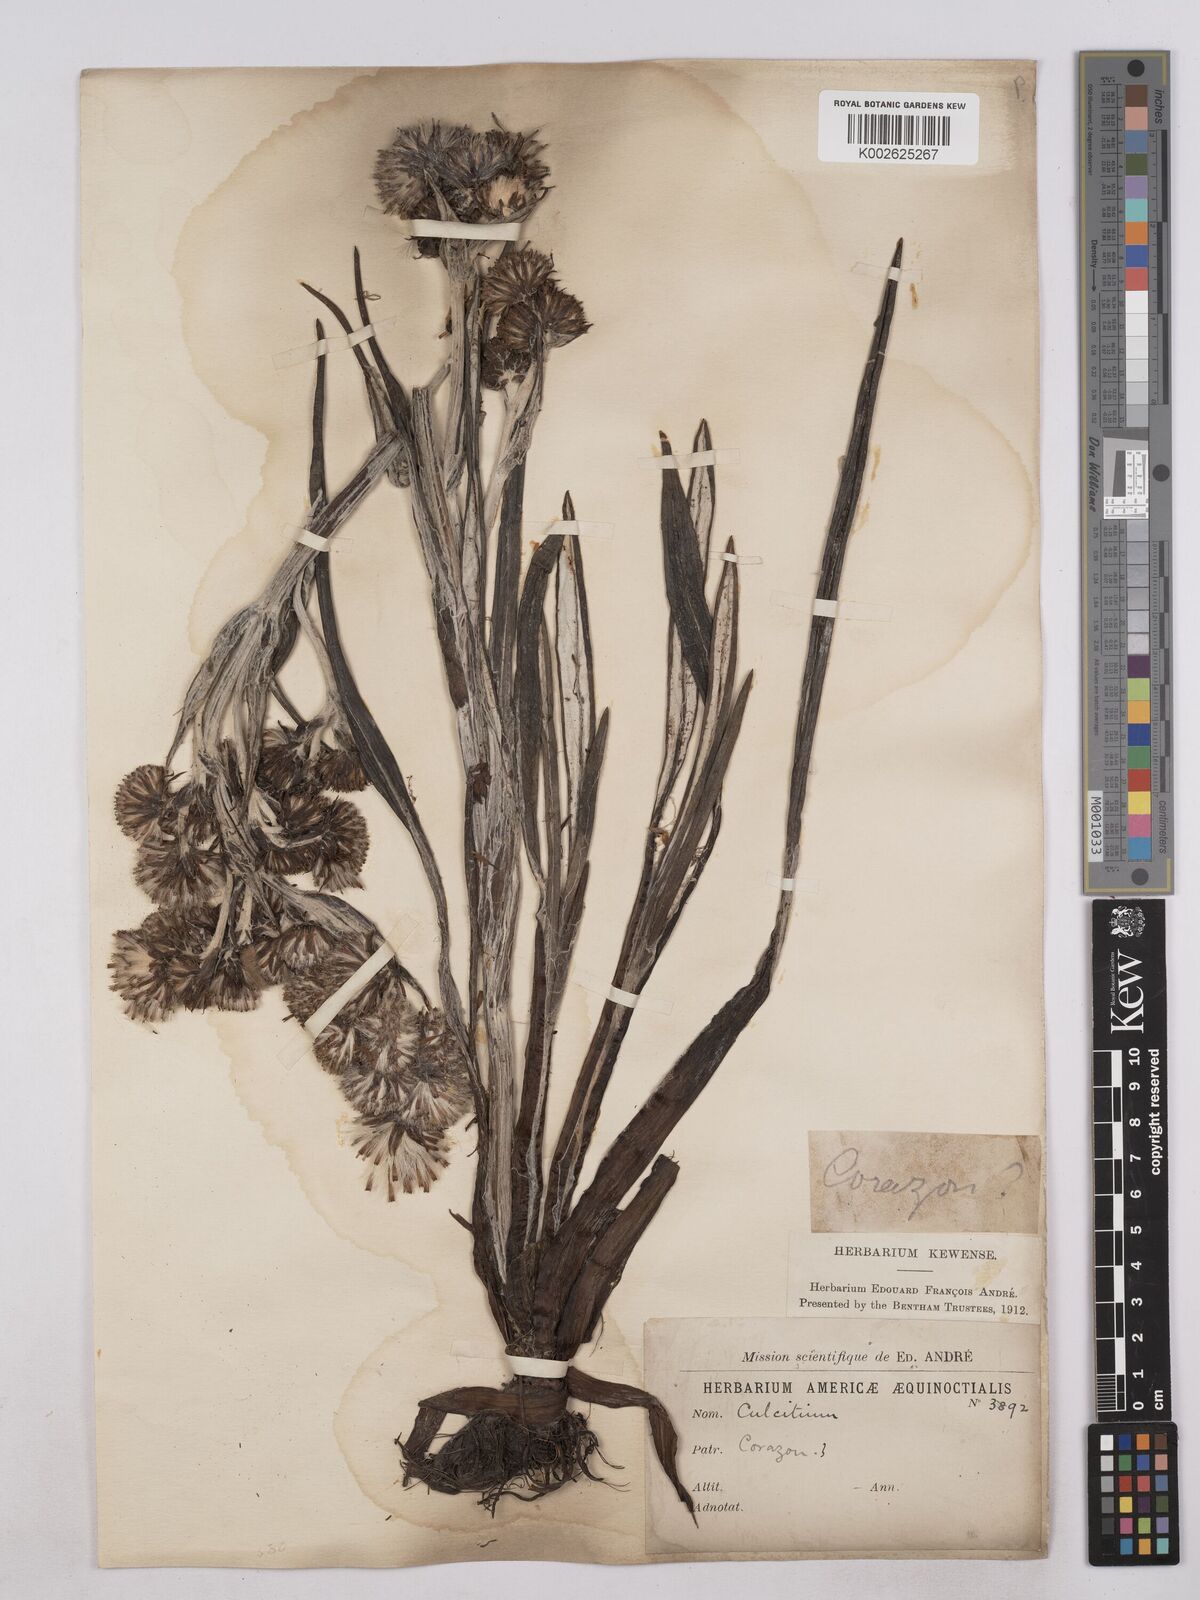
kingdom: Plantae
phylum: Tracheophyta
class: Magnoliopsida
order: Asterales
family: Asteraceae
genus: Senecio
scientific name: Senecio comosus
